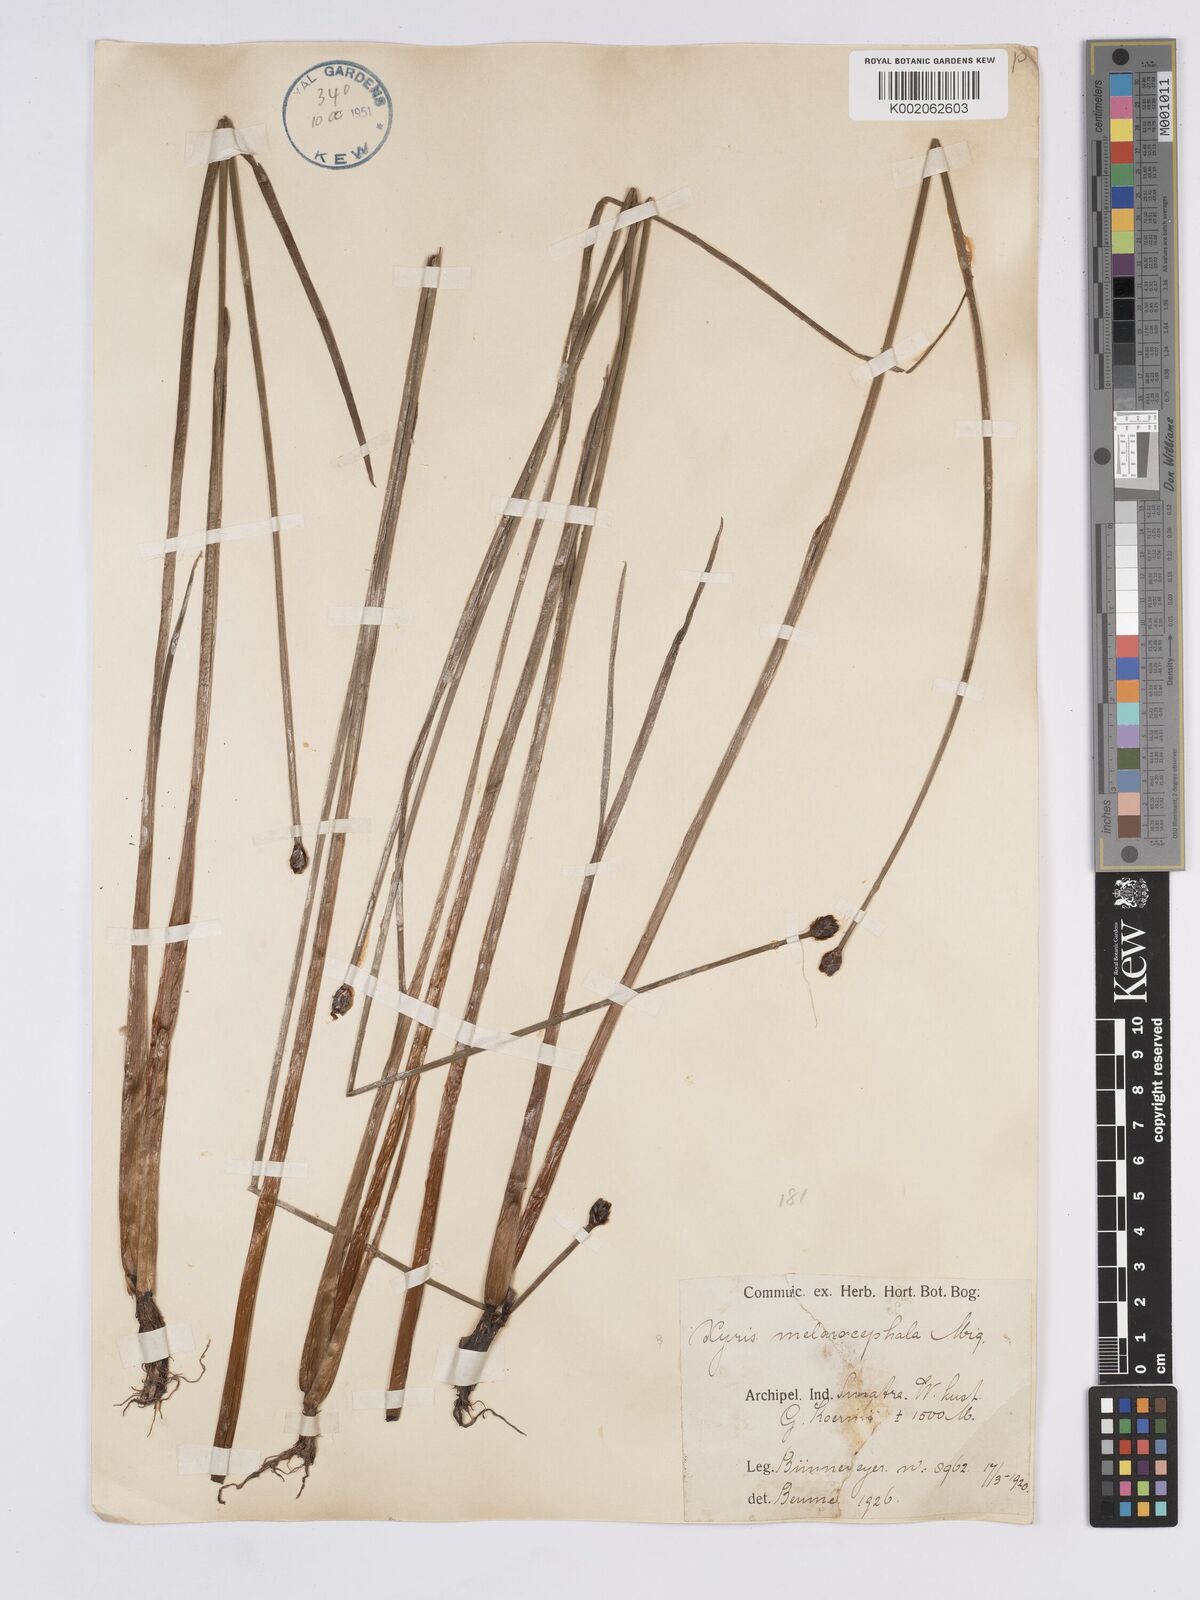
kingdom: Plantae
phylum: Tracheophyta
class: Liliopsida
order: Poales
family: Xyridaceae
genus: Xyris
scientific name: Xyris capensis
